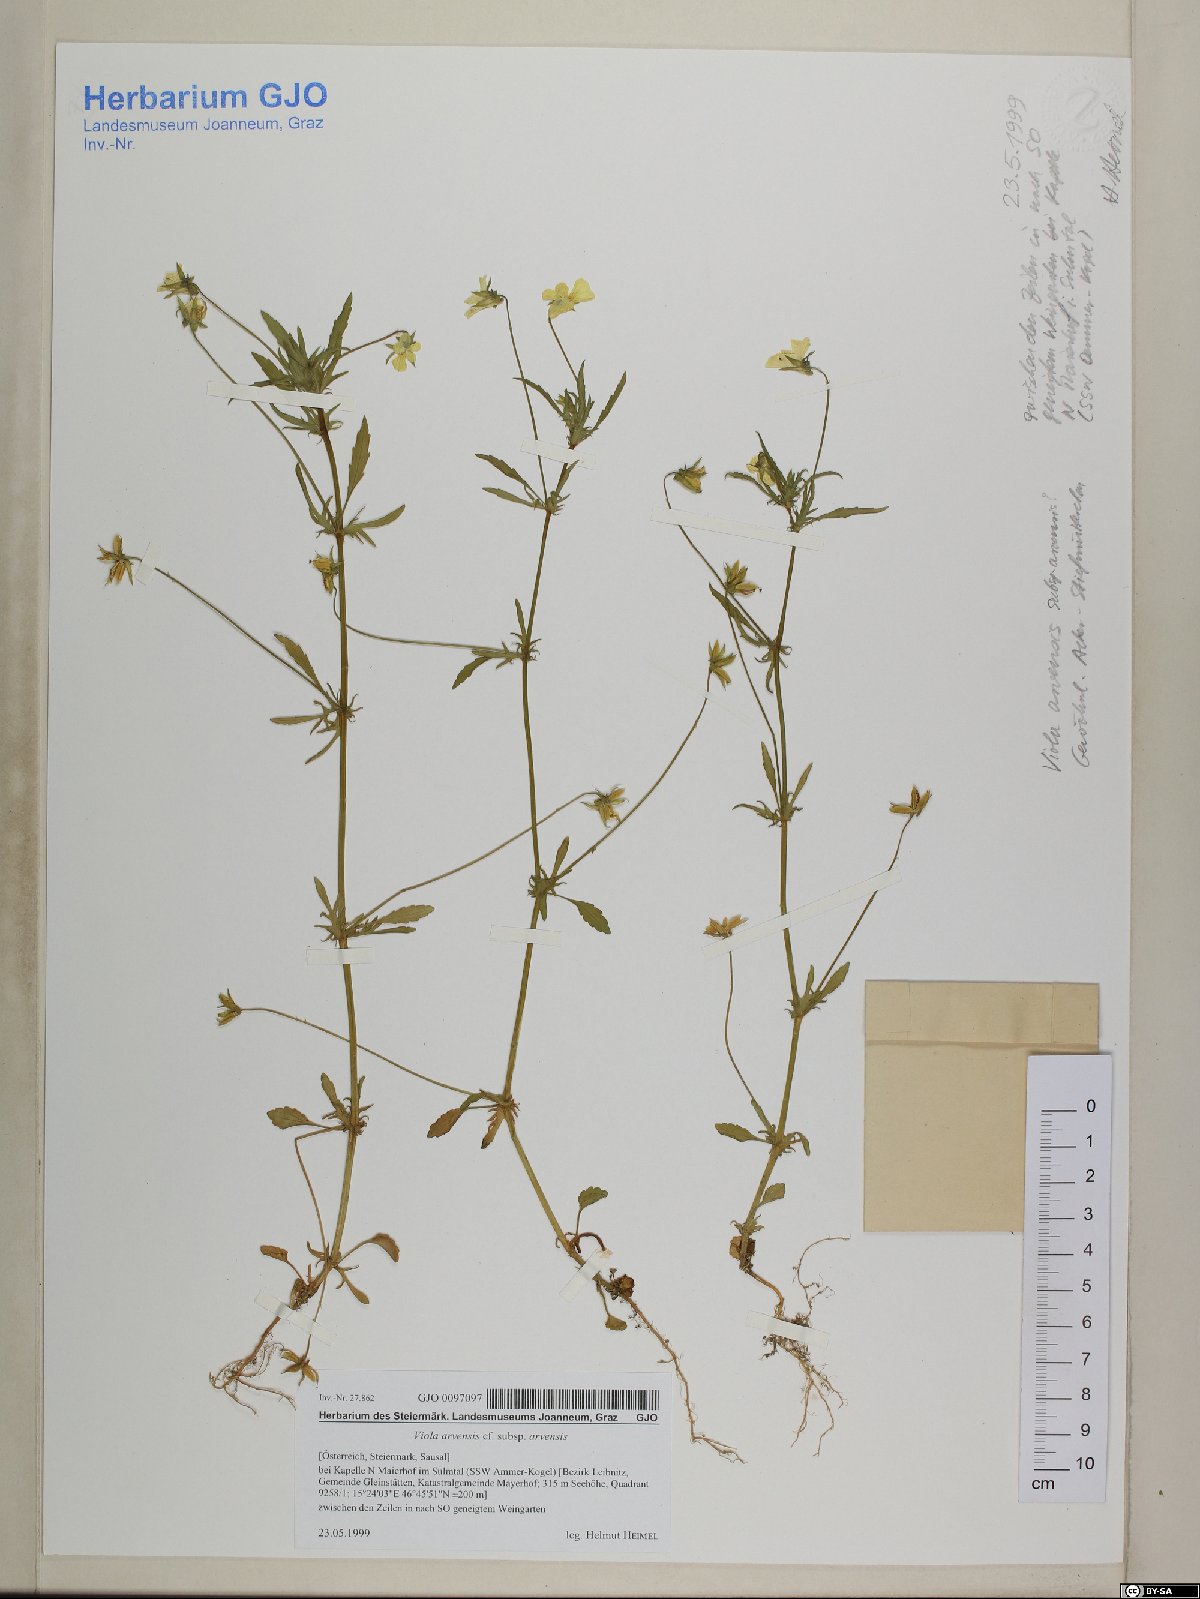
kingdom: Plantae
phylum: Tracheophyta
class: Magnoliopsida
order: Malpighiales
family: Violaceae
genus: Viola
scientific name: Viola arvensis
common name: Field pansy
